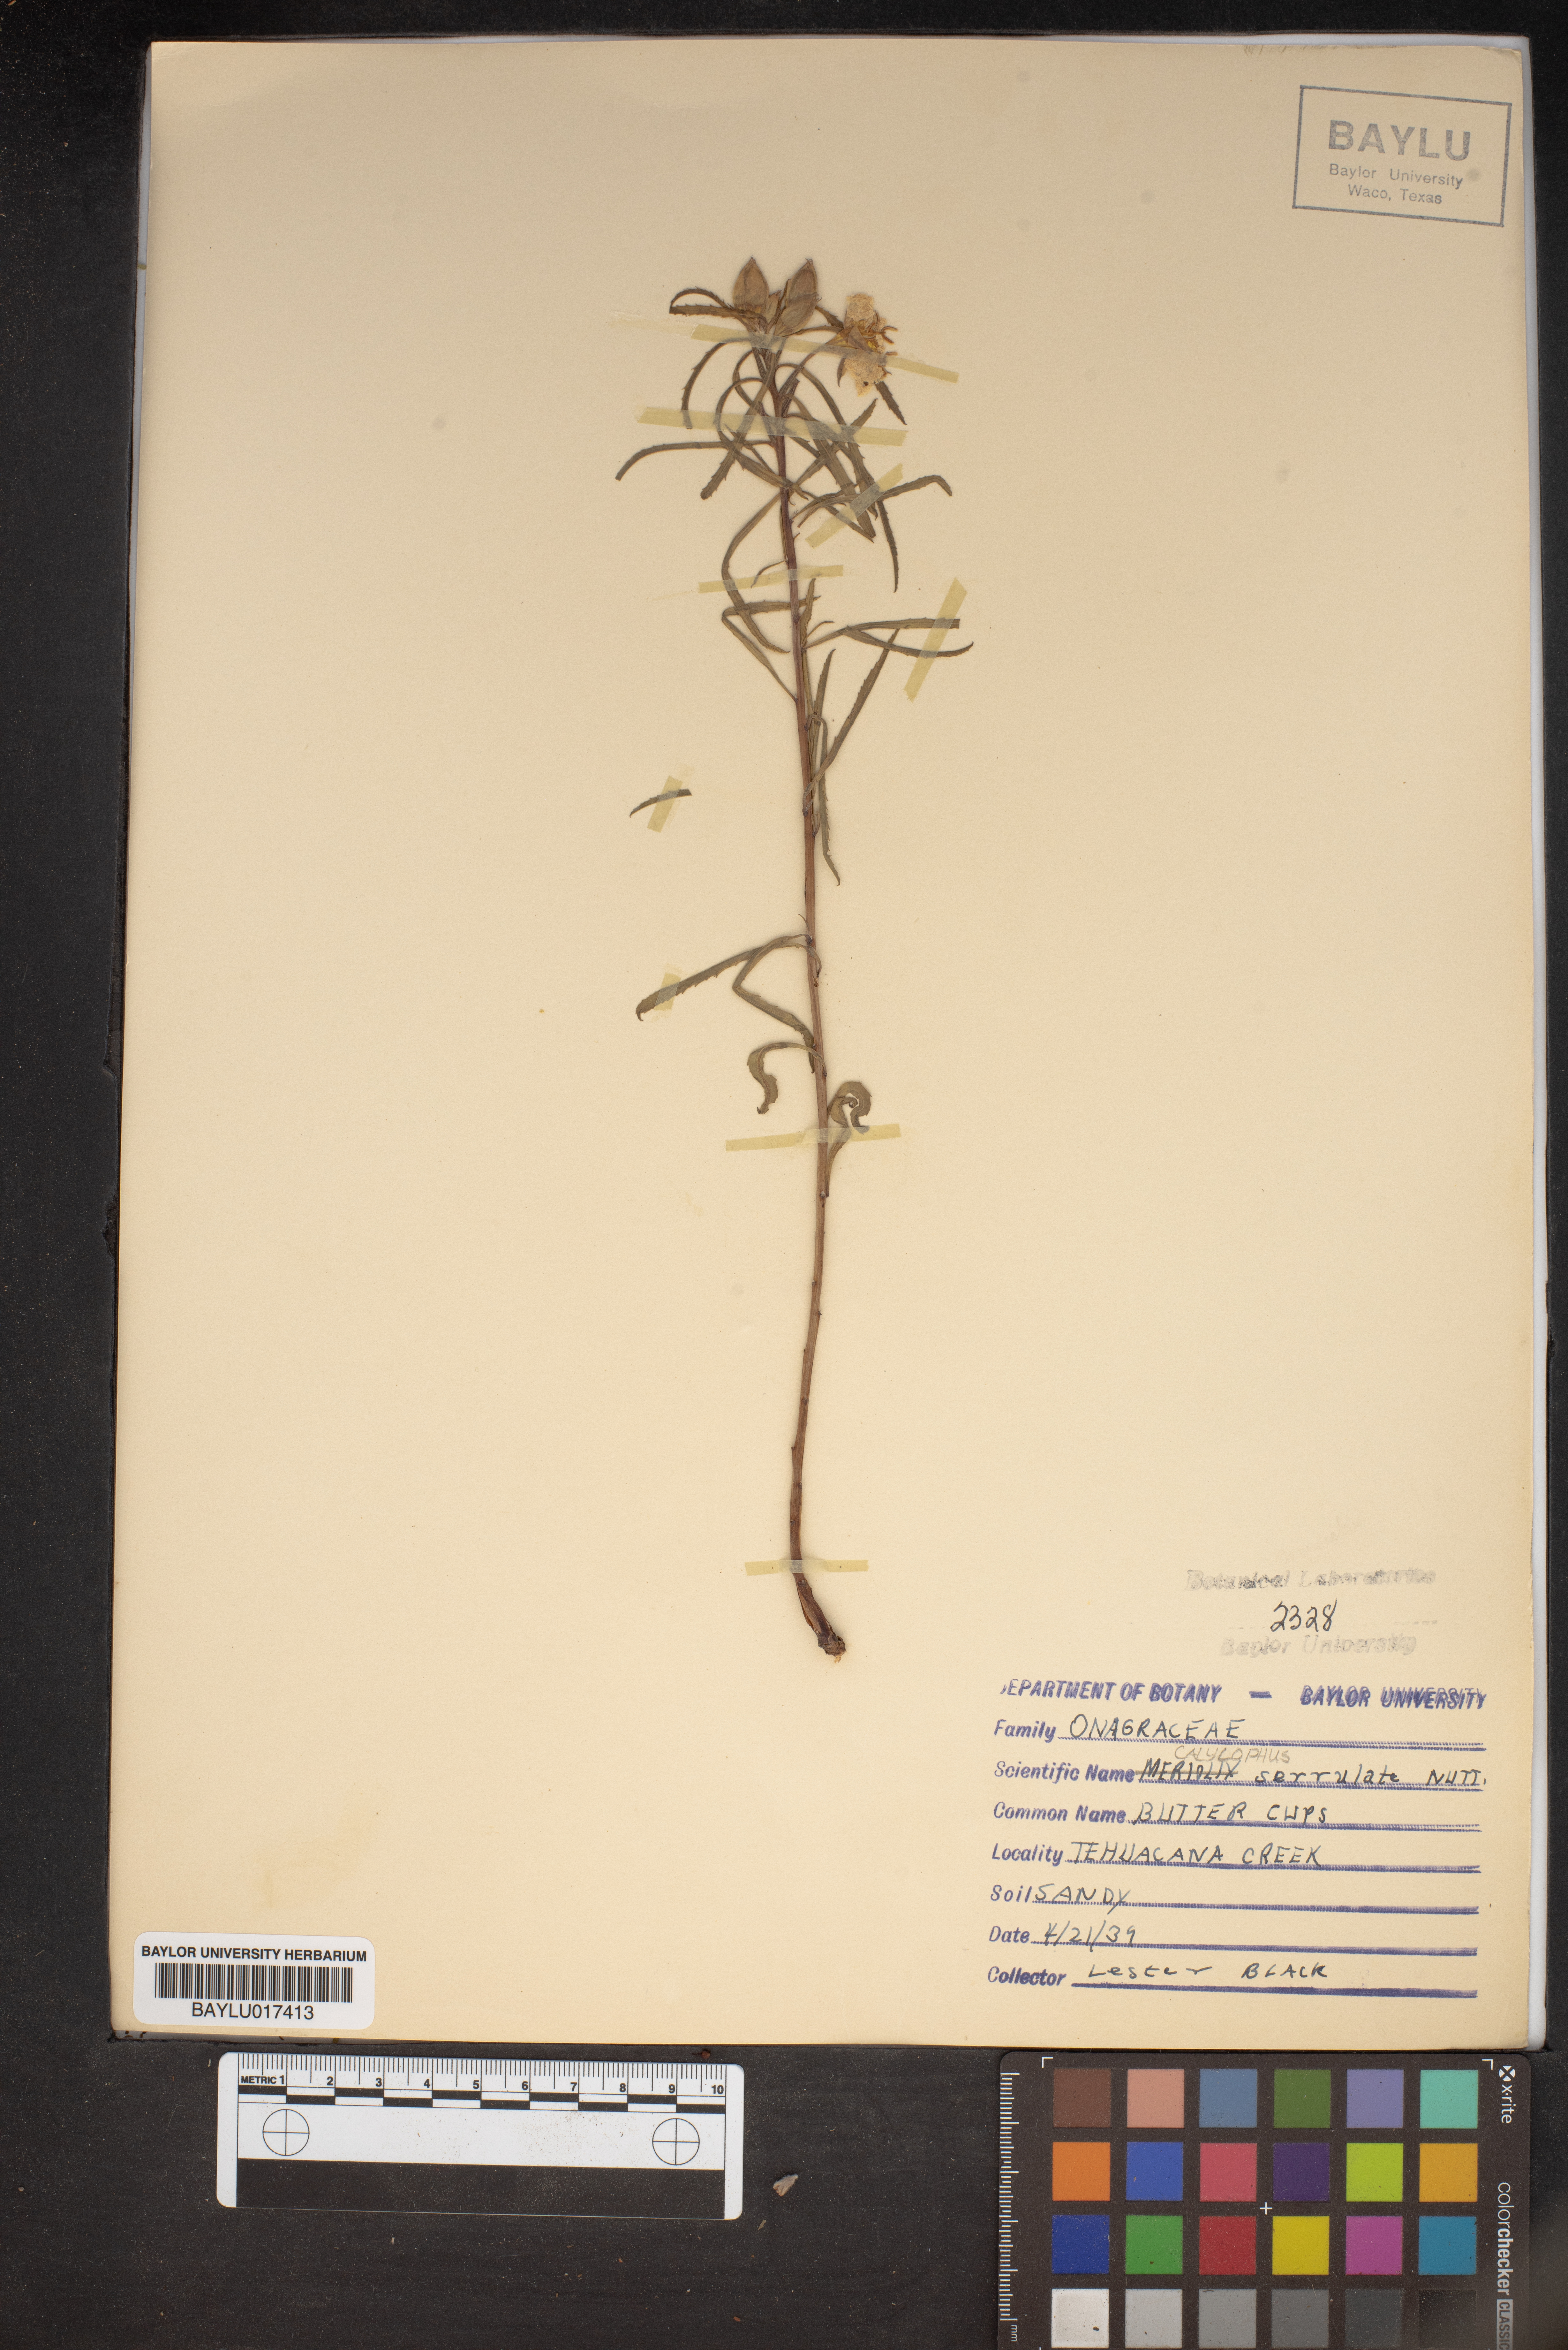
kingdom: Plantae
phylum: Tracheophyta
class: Magnoliopsida
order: Myrtales
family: Onagraceae
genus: Oenothera
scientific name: Oenothera serrulata
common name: Half-shrub calylophus
